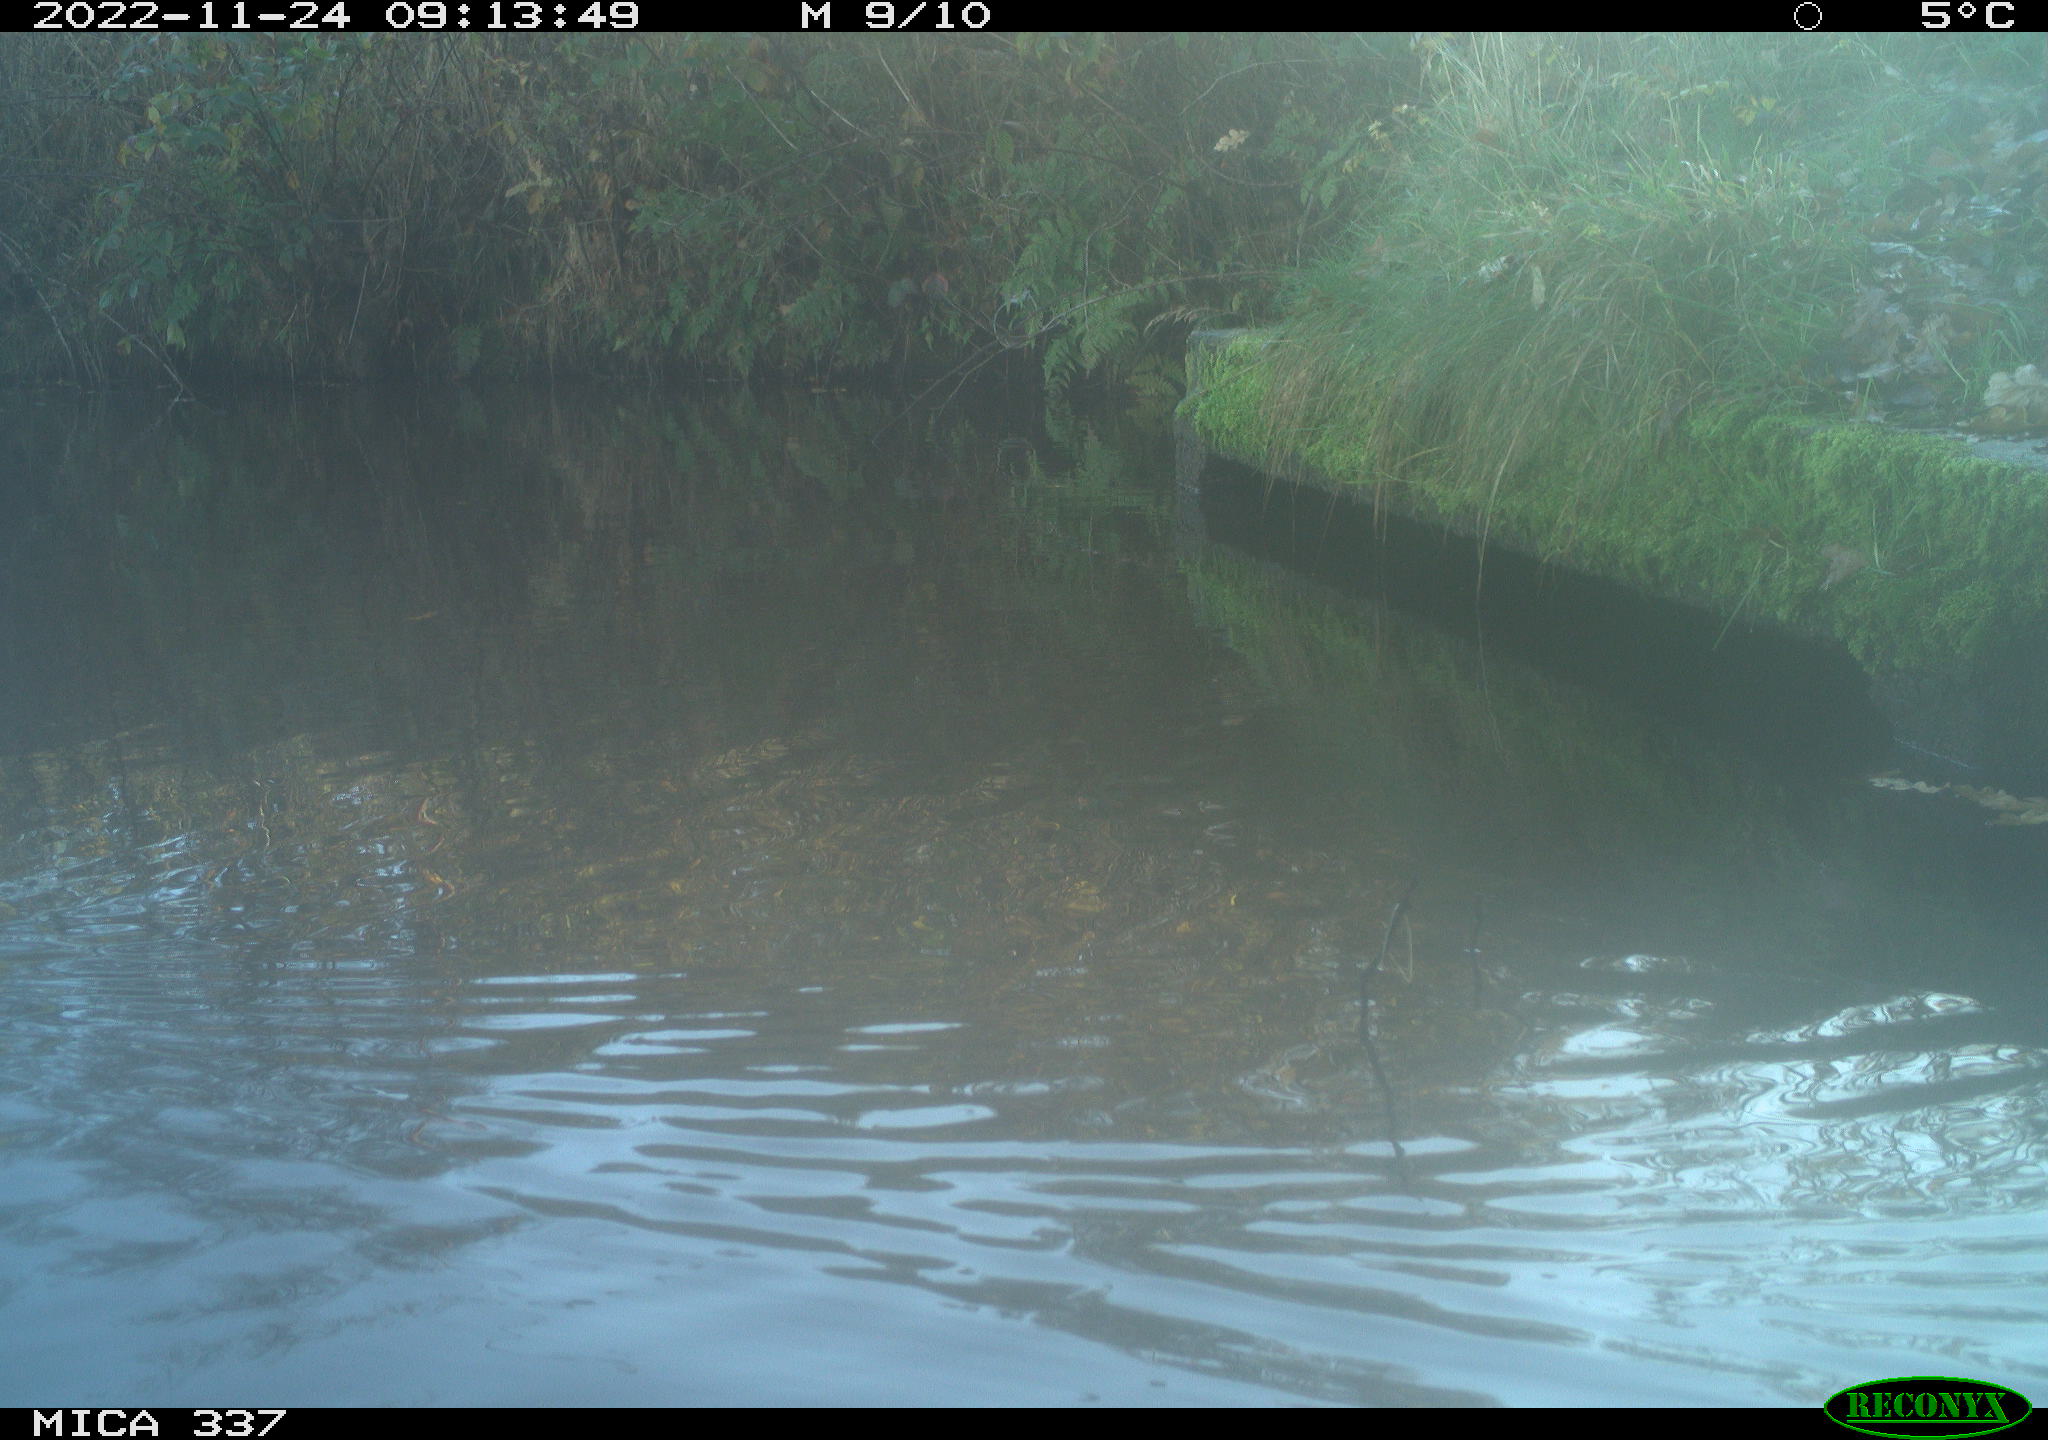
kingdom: Animalia
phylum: Chordata
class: Aves
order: Gruiformes
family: Rallidae
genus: Gallinula
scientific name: Gallinula chloropus
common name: Common moorhen
